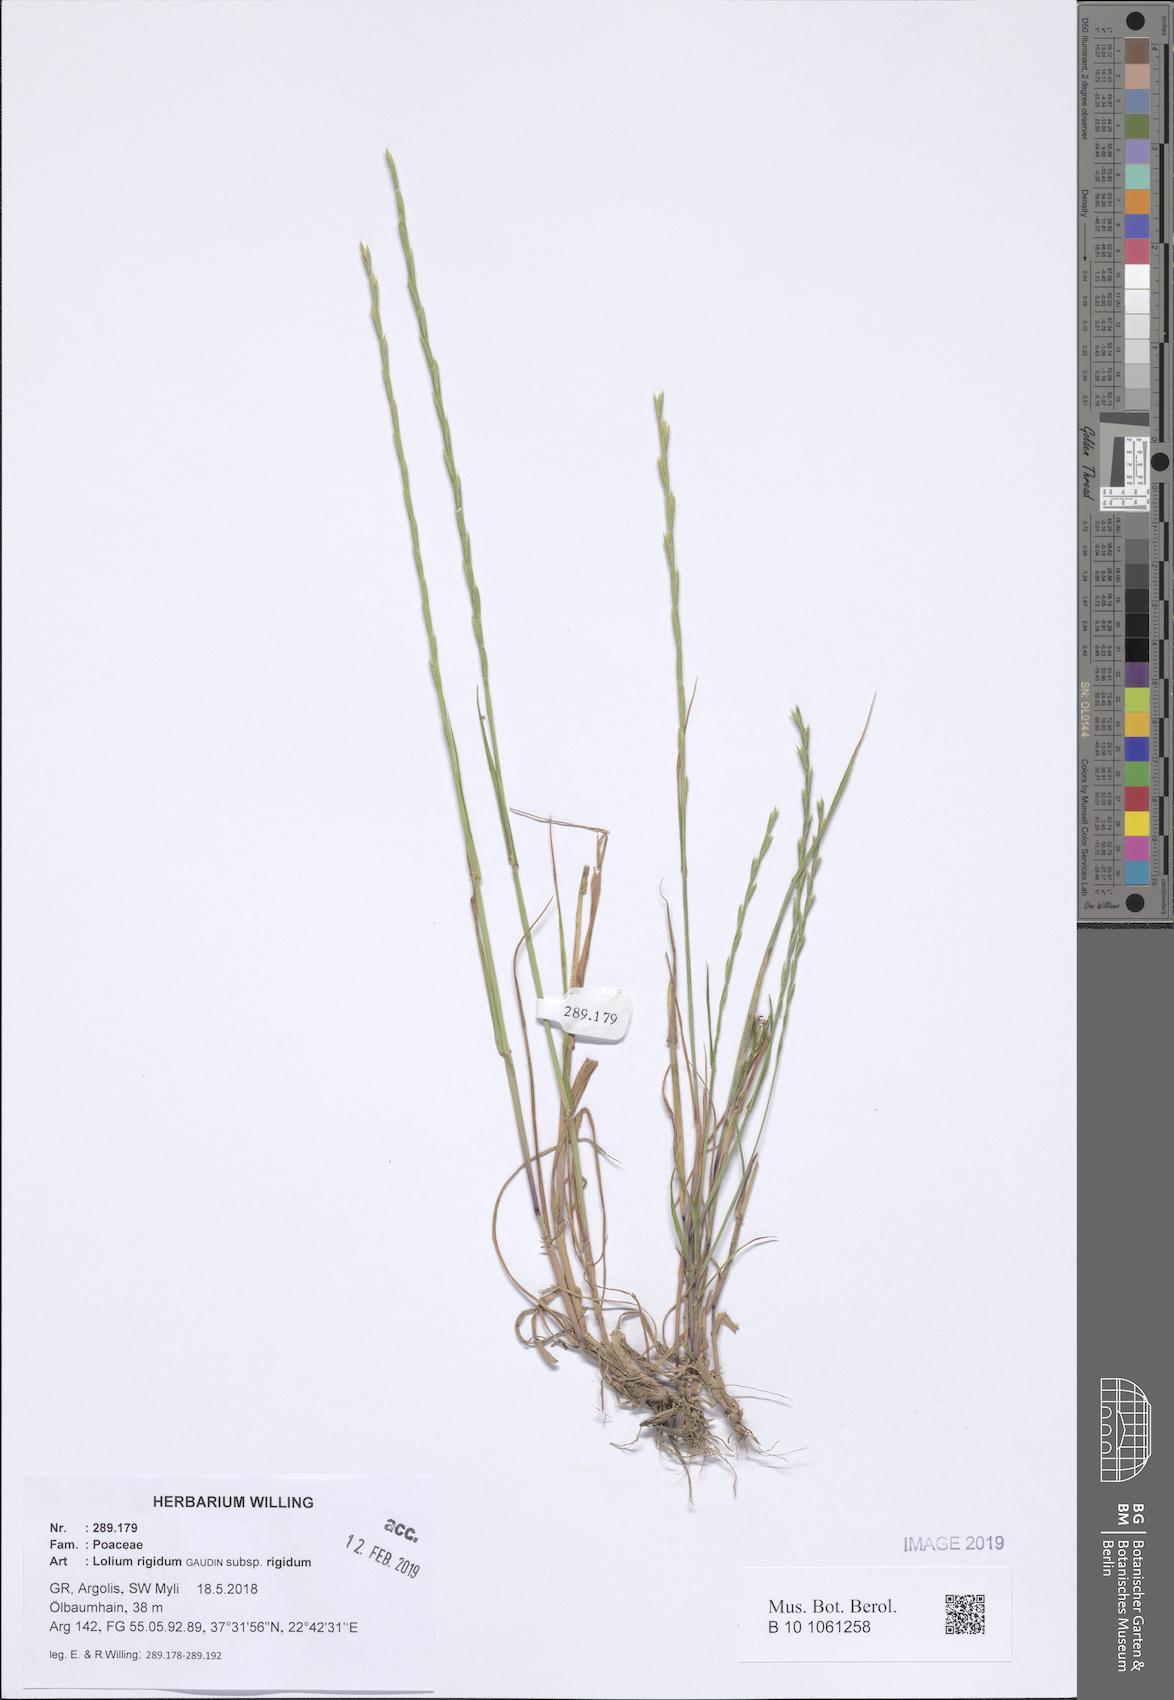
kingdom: Plantae
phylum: Tracheophyta
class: Liliopsida
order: Poales
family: Poaceae
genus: Lolium
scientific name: Lolium rigidum
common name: Wimmera ryegrass
